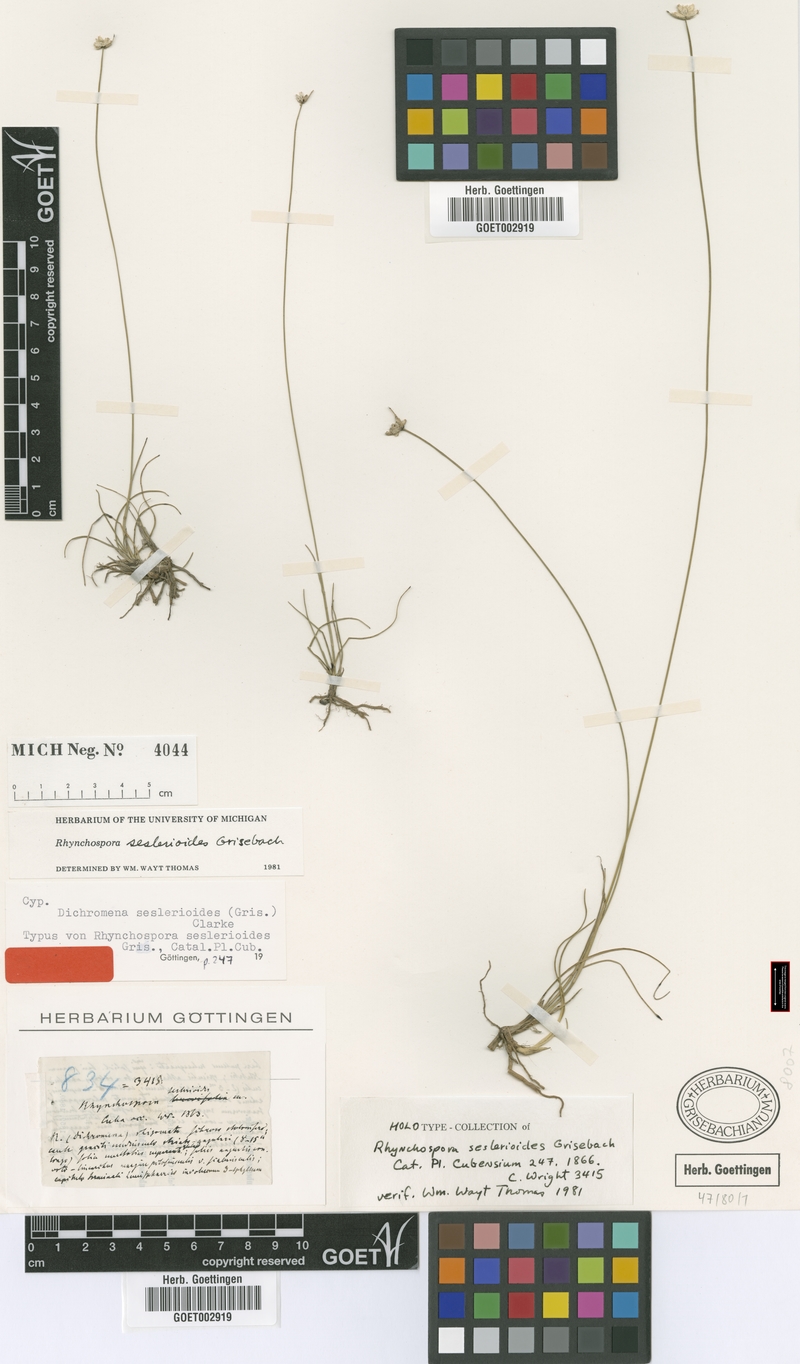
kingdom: Plantae
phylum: Tracheophyta
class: Liliopsida
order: Poales
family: Cyperaceae
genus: Rhynchospora
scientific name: Rhynchospora seslerioides
